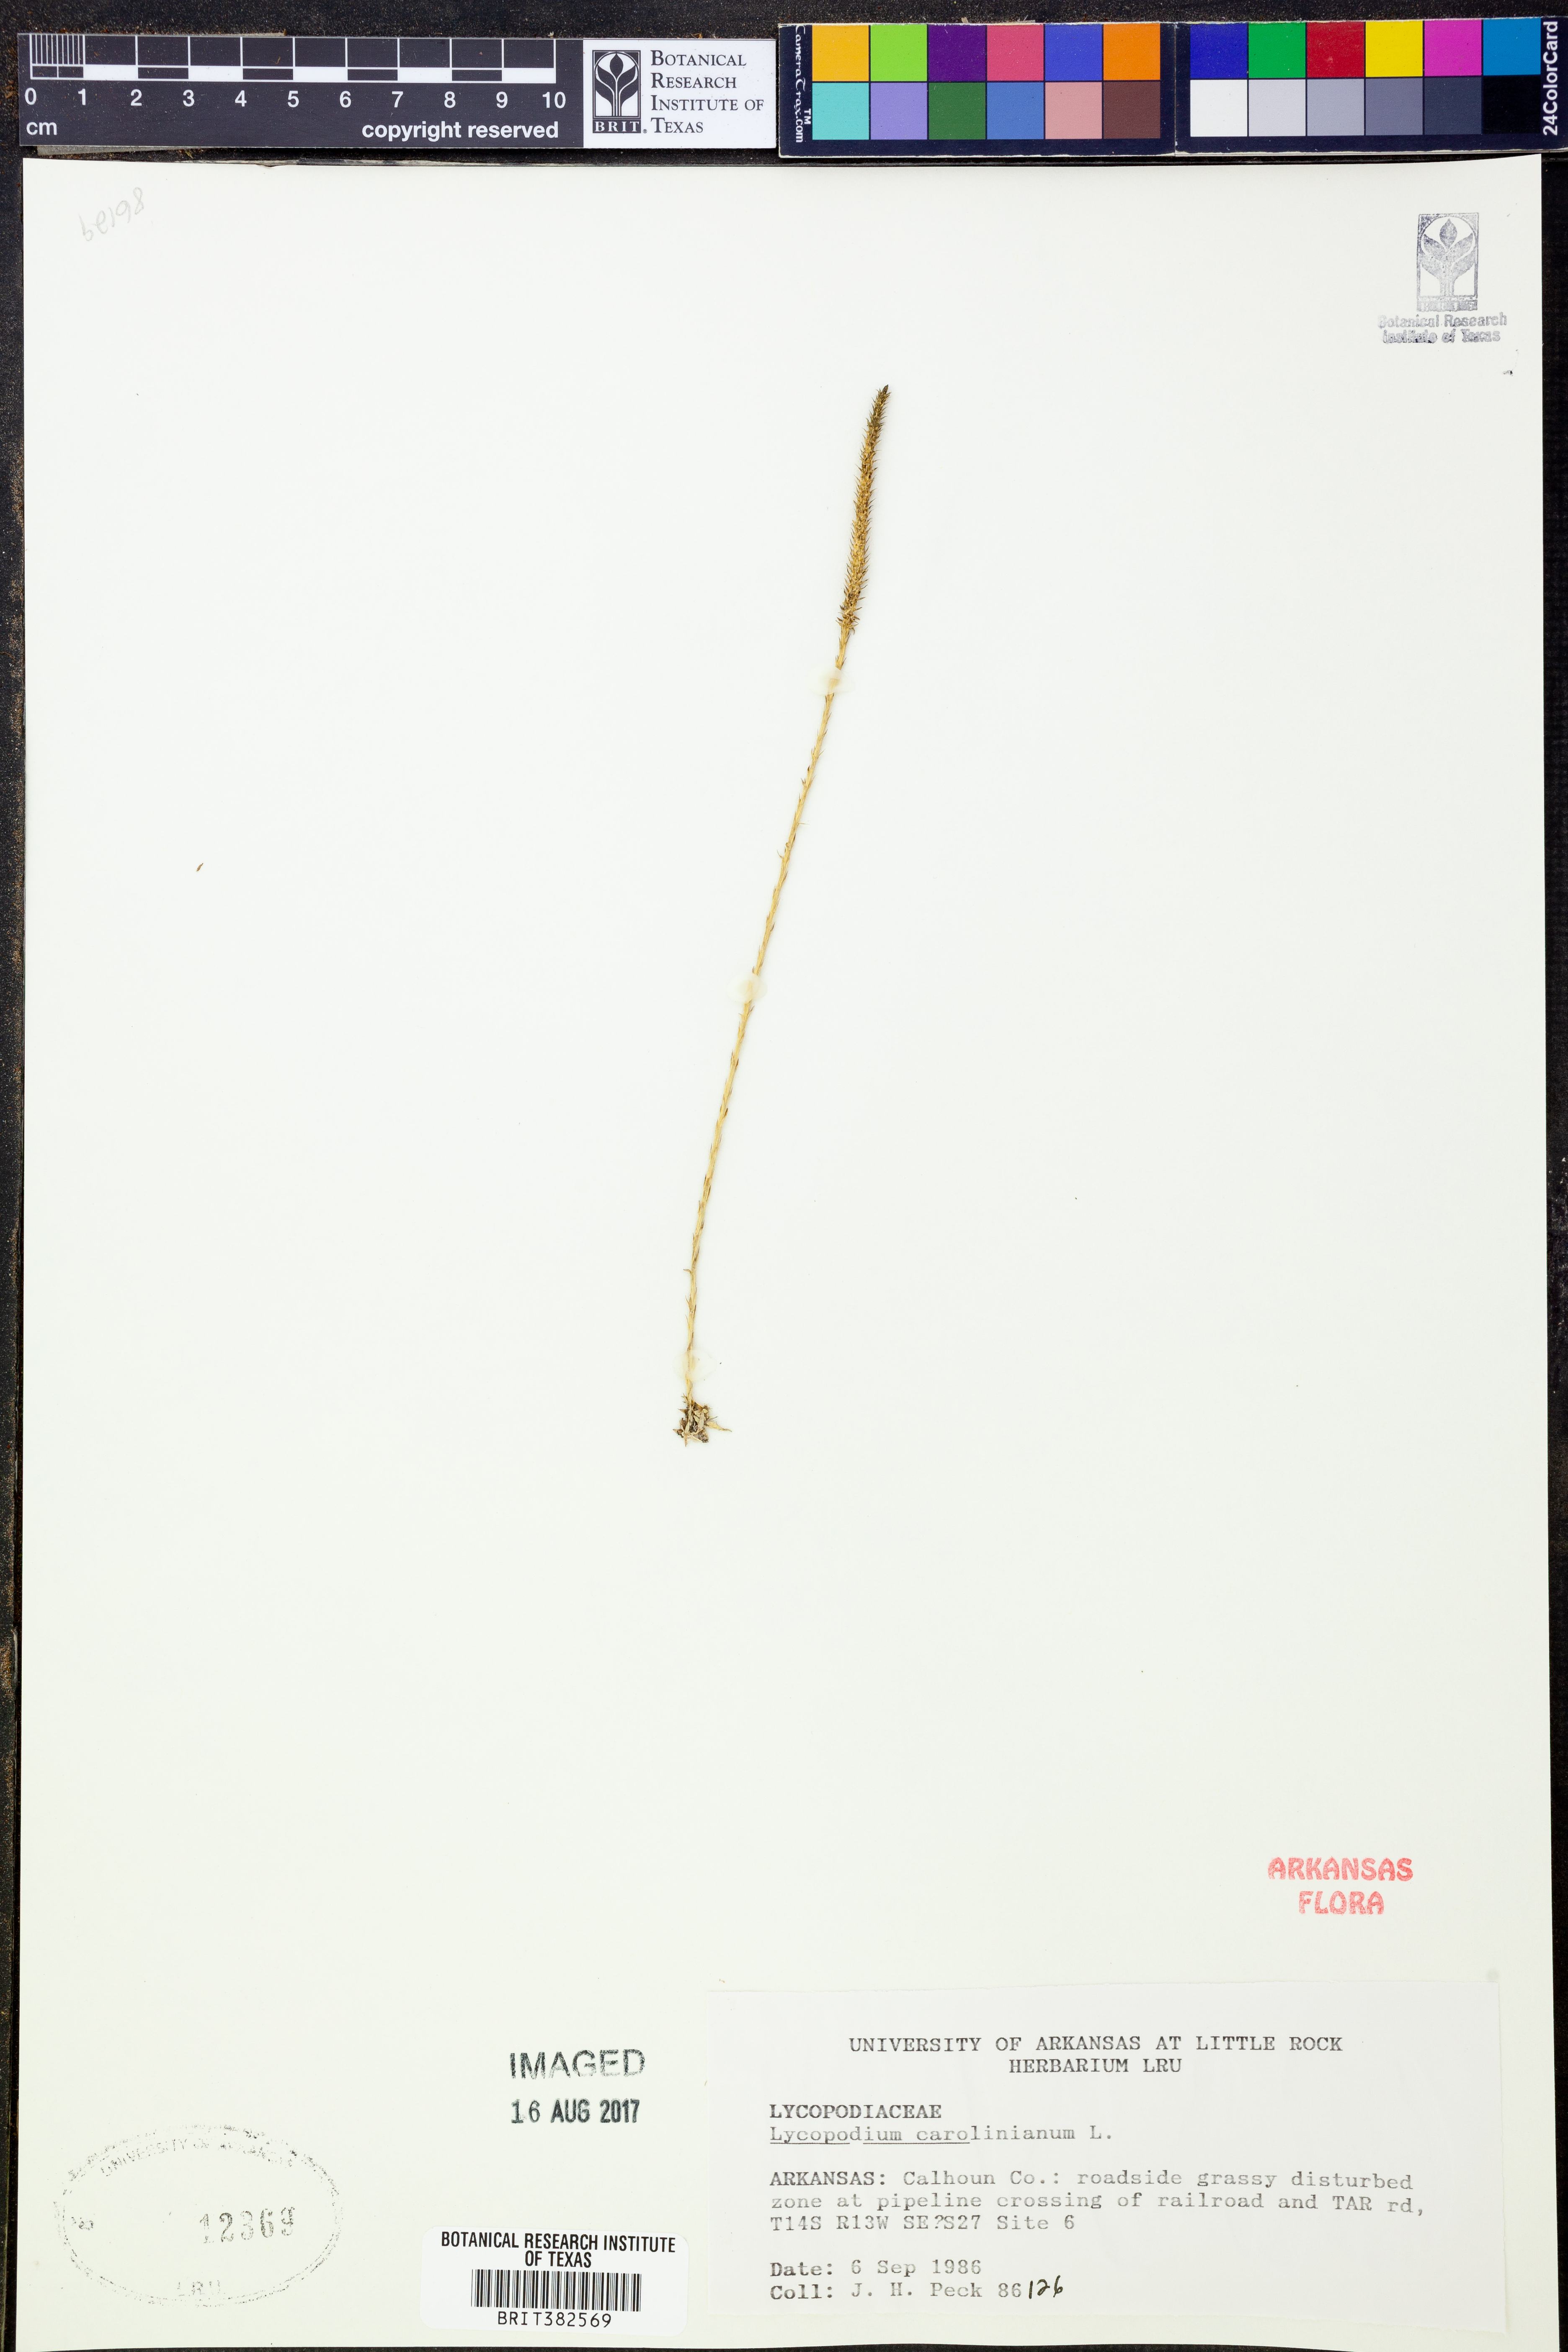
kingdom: Plantae
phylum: Tracheophyta
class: Lycopodiopsida
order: Lycopodiales
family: Lycopodiaceae
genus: Pseudolycopodiella
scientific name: Pseudolycopodiella caroliniana
